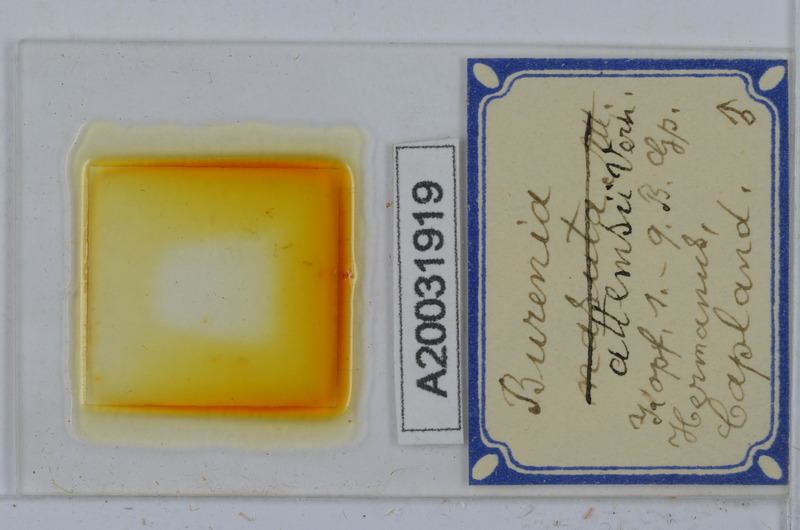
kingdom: Animalia
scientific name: Animalia
